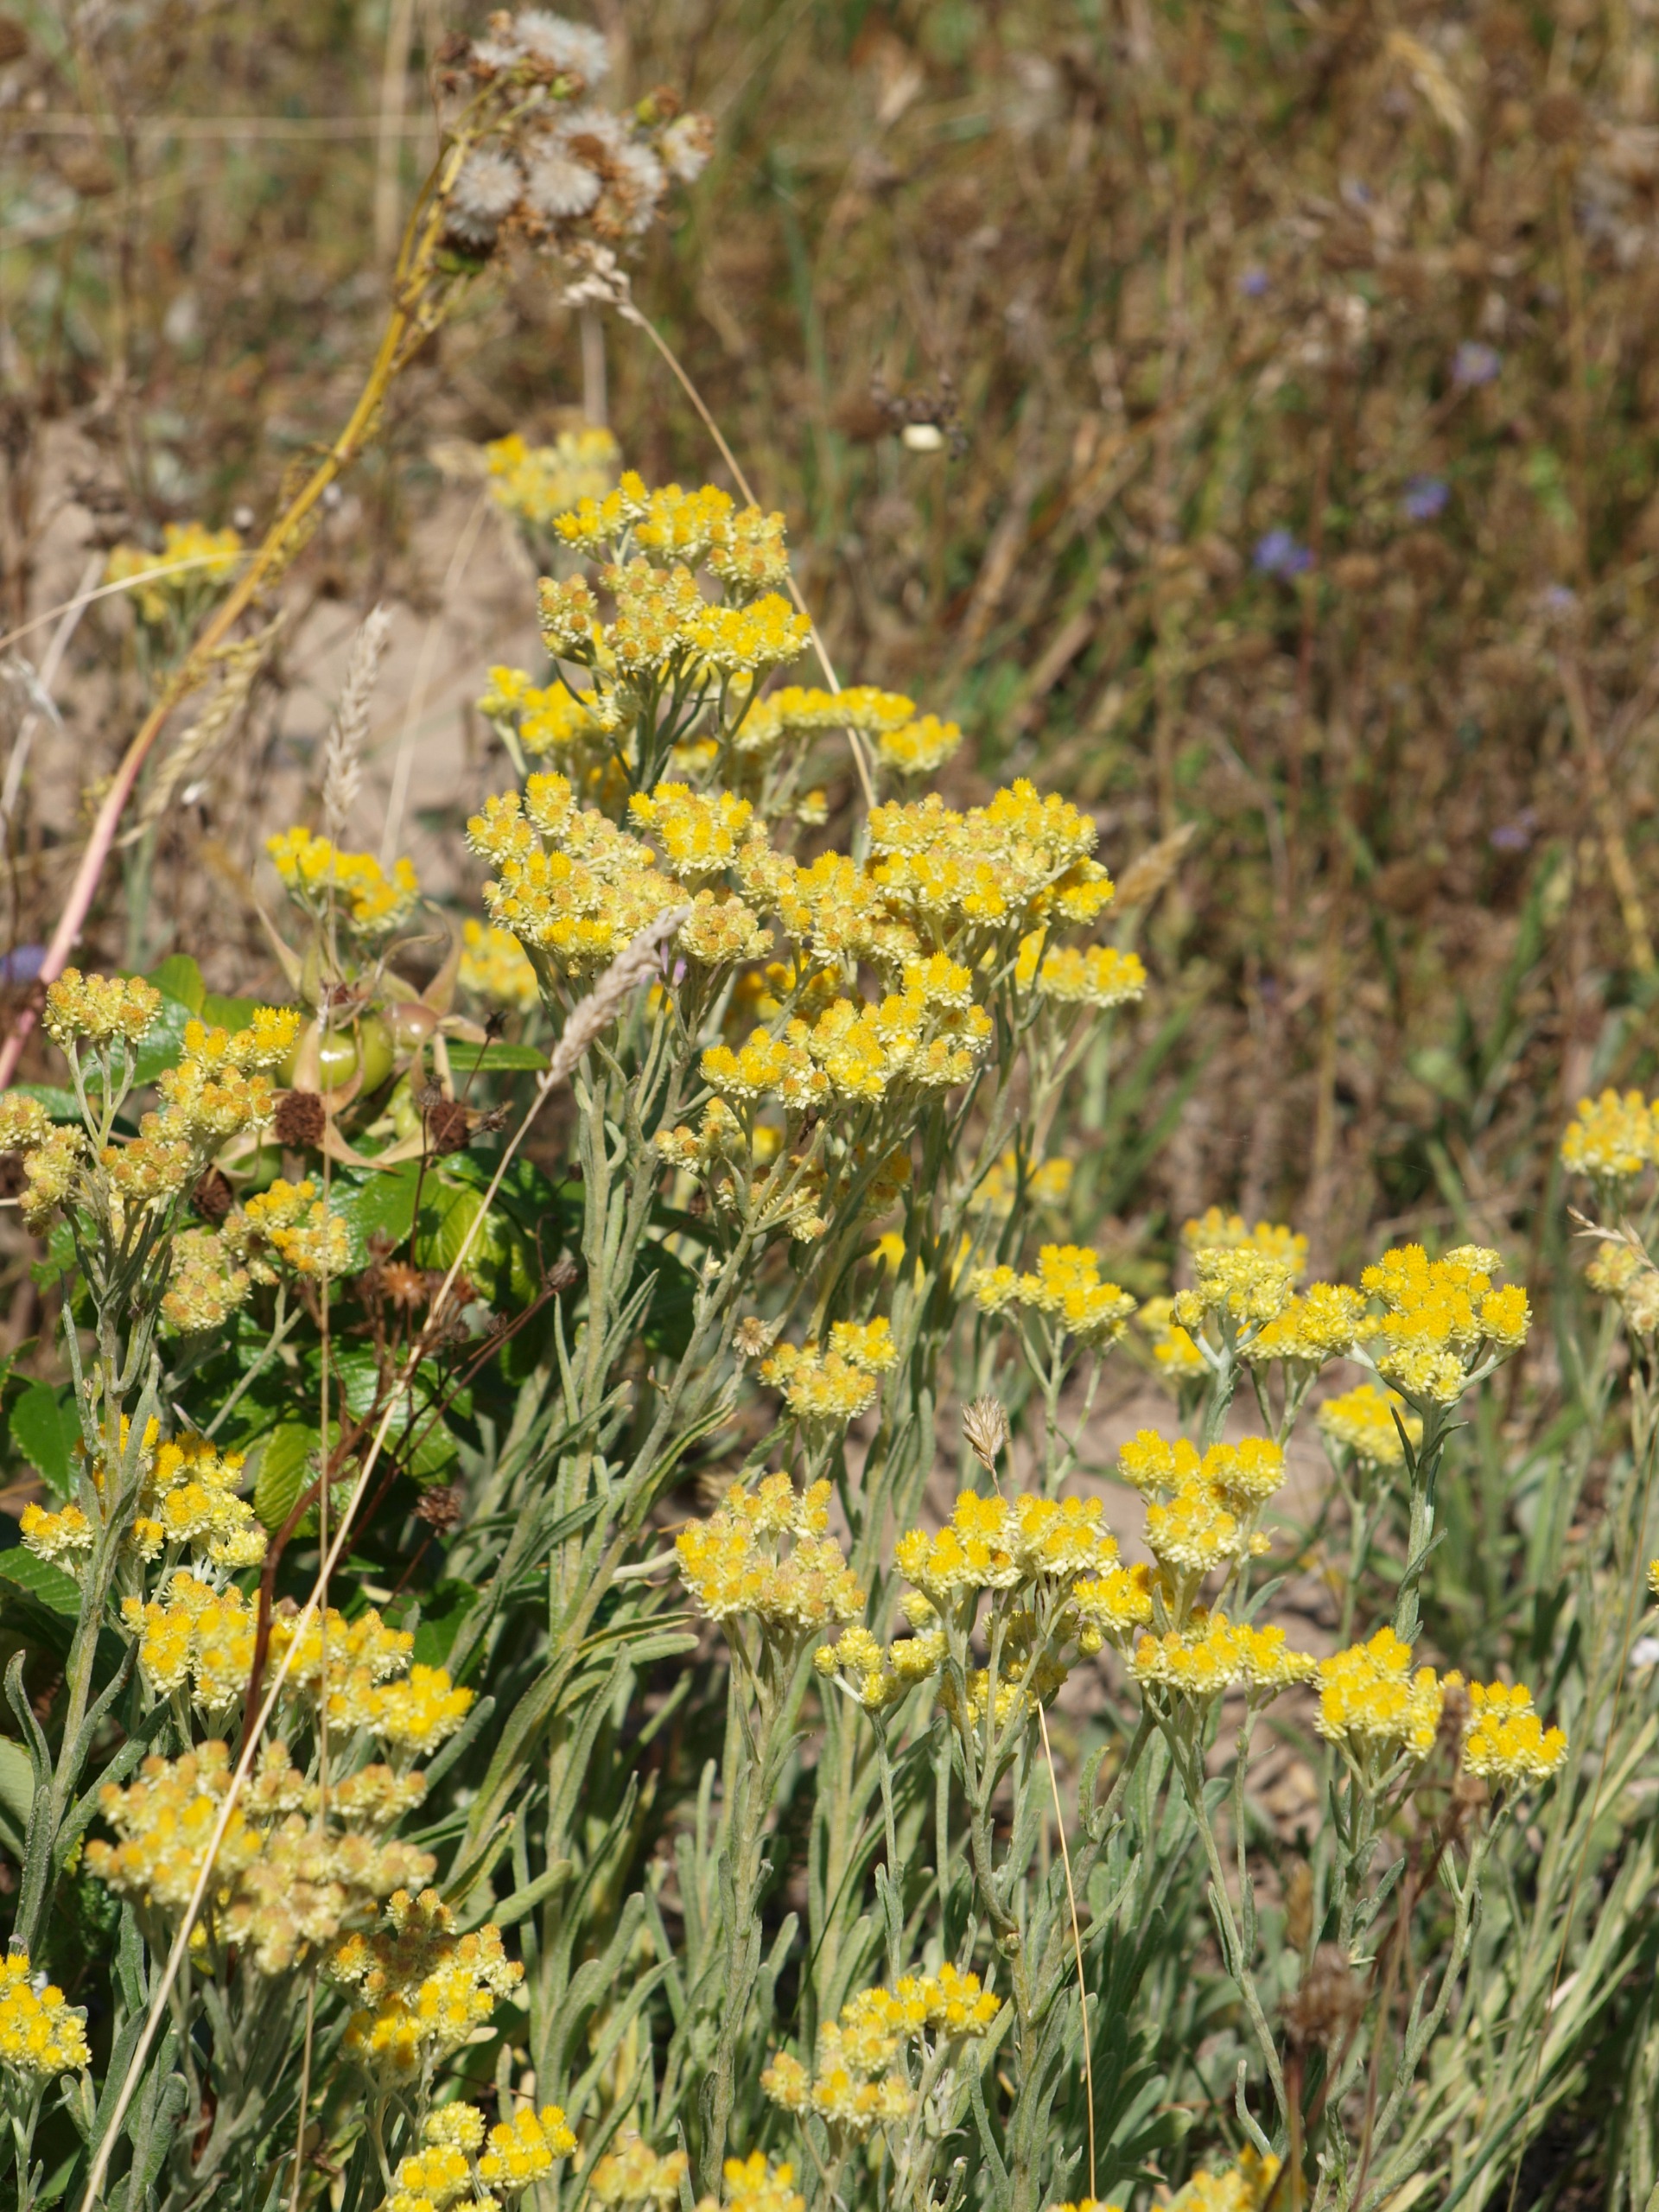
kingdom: Plantae
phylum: Tracheophyta
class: Magnoliopsida
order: Asterales
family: Asteraceae
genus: Helichrysum
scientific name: Helichrysum arenarium
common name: Gul evighedsblomst
